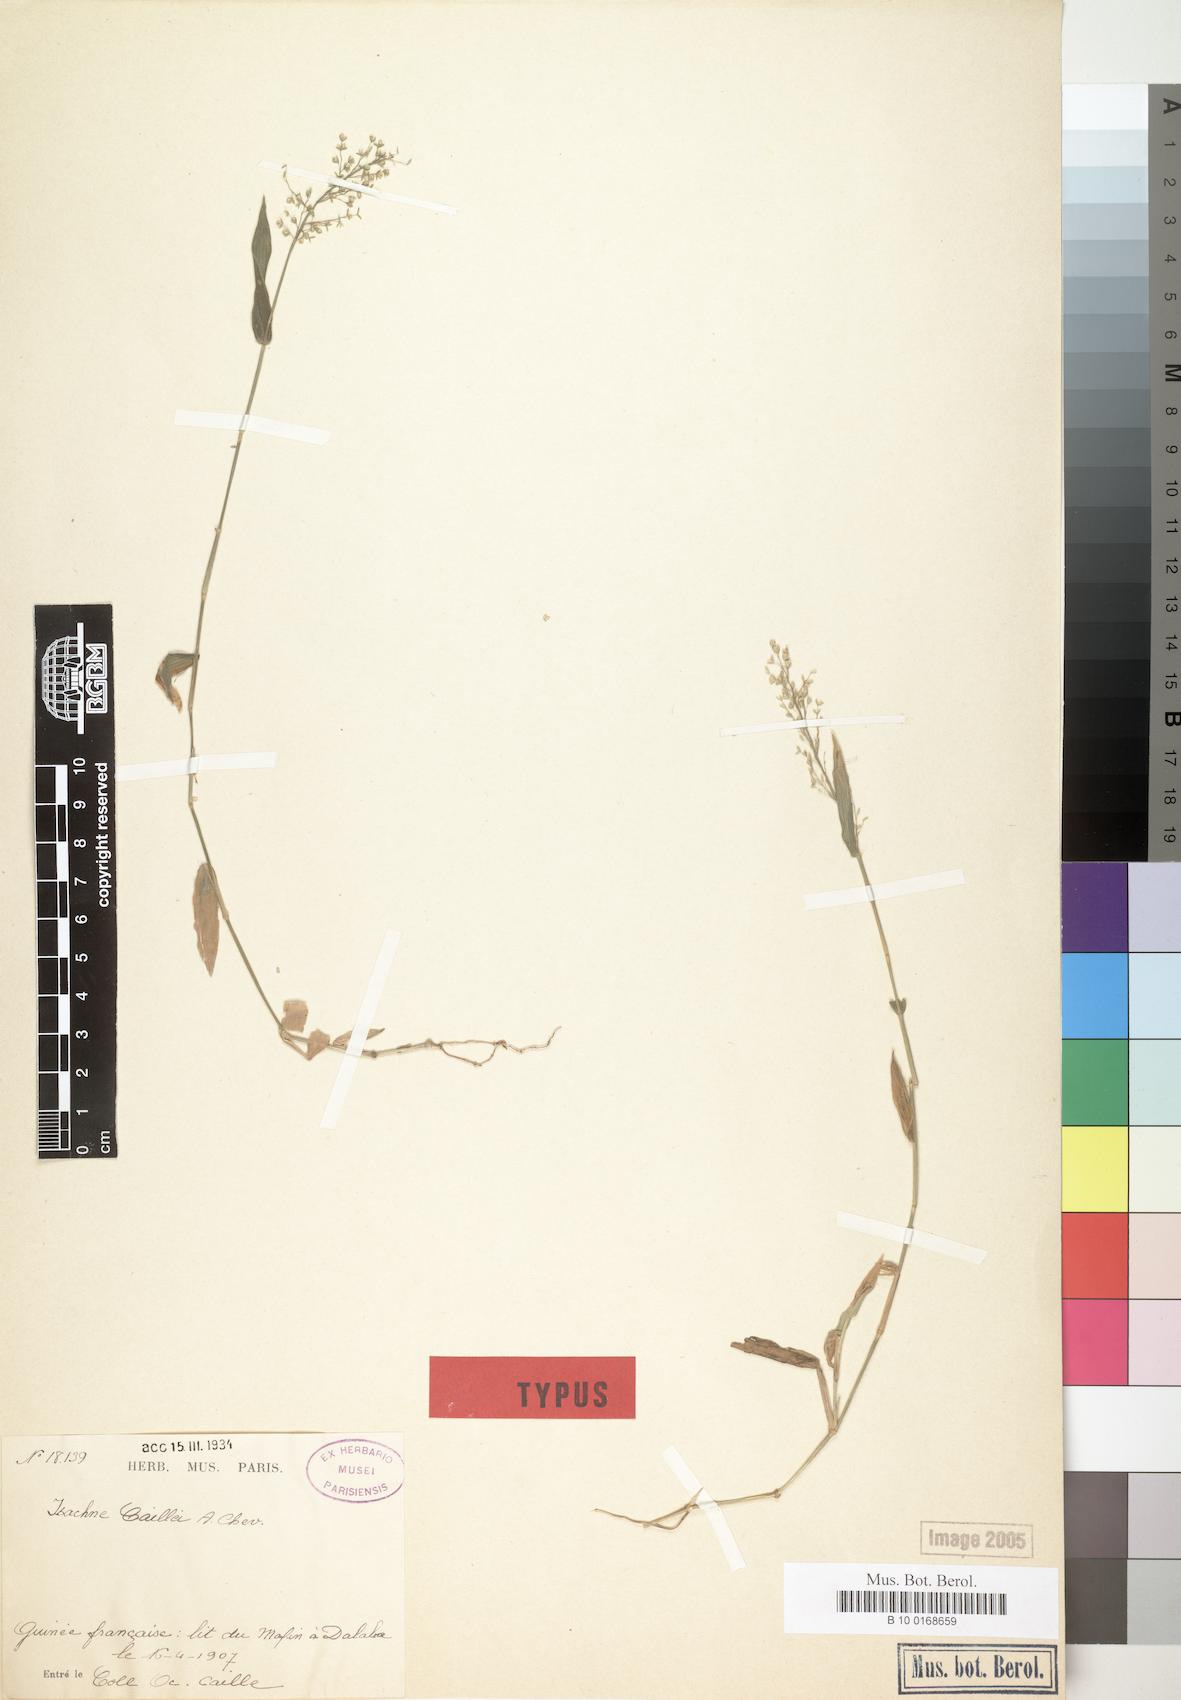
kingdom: Plantae
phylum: Tracheophyta
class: Liliopsida
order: Poales
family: Poaceae
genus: Isachne
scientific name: Isachne kiyalaensis
